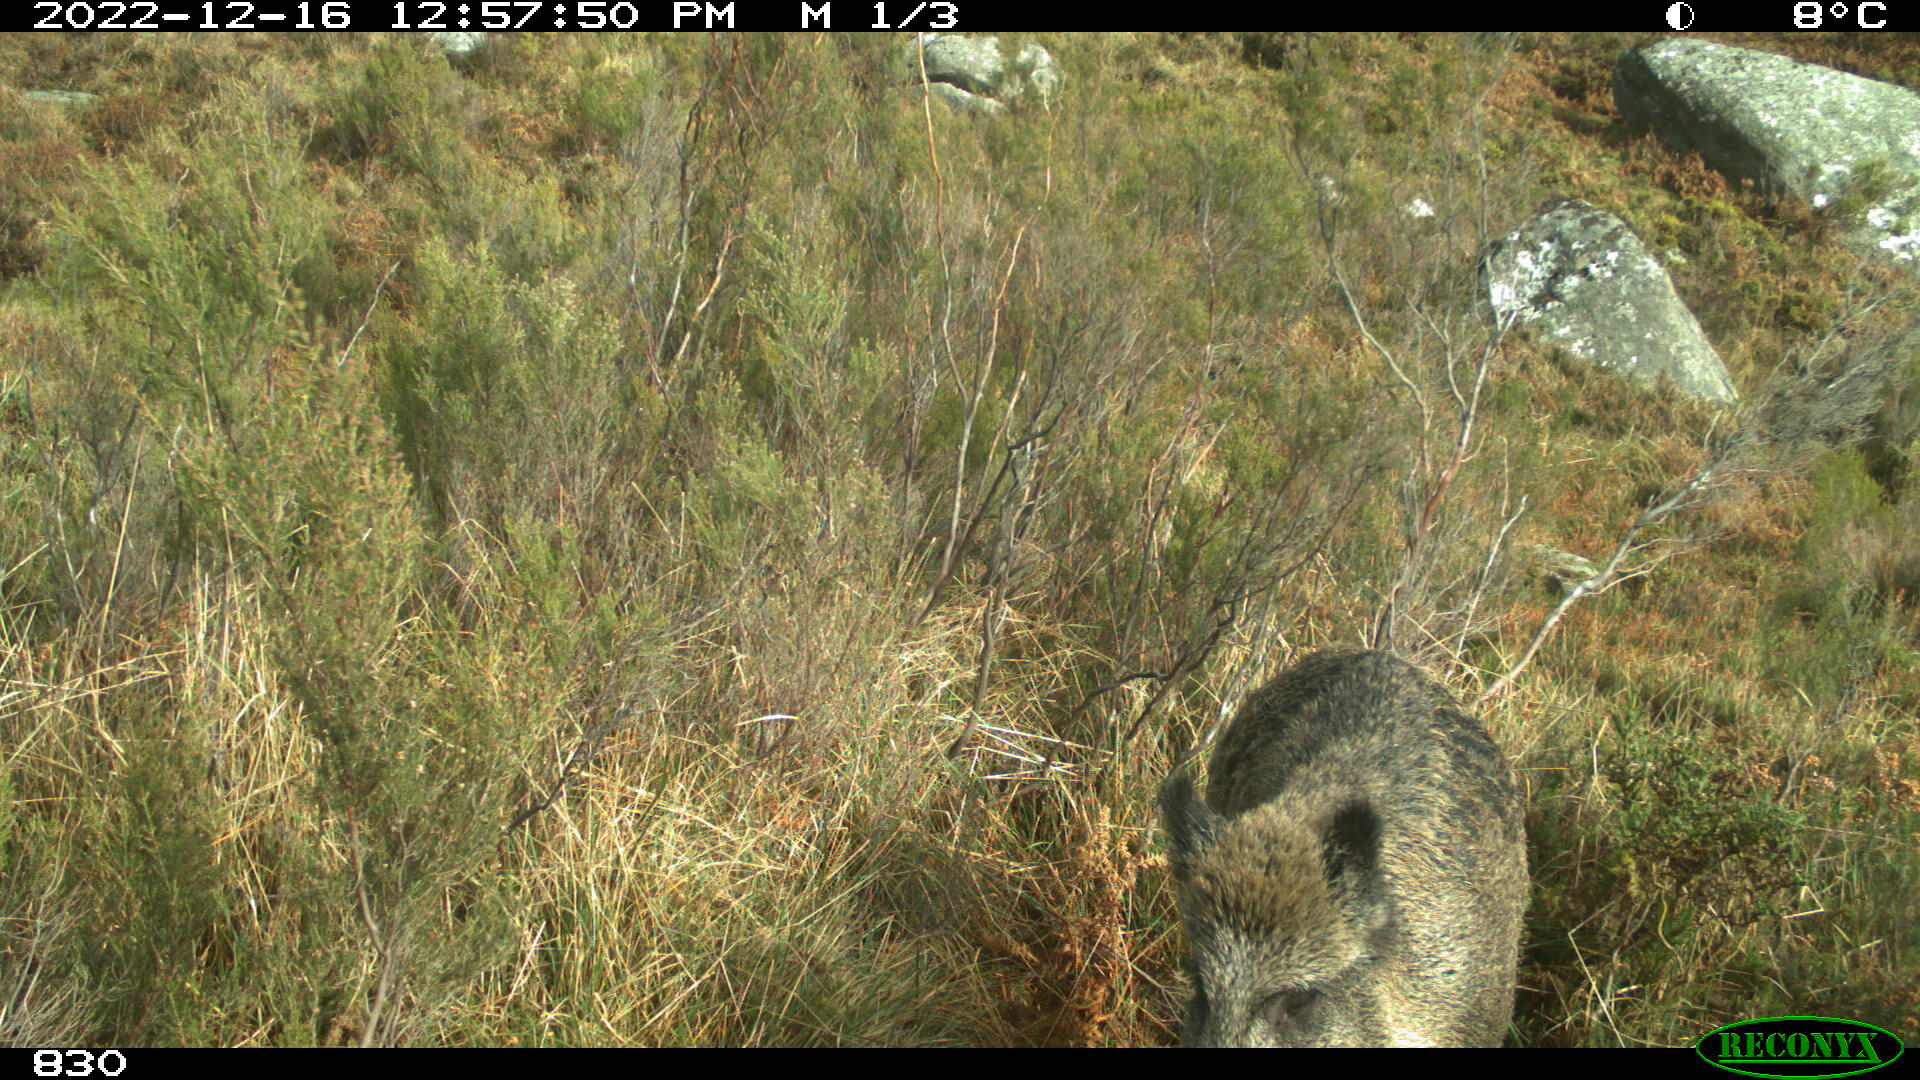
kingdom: Animalia
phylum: Chordata
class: Mammalia
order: Artiodactyla
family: Suidae
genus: Sus
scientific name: Sus scrofa
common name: Wild boar
